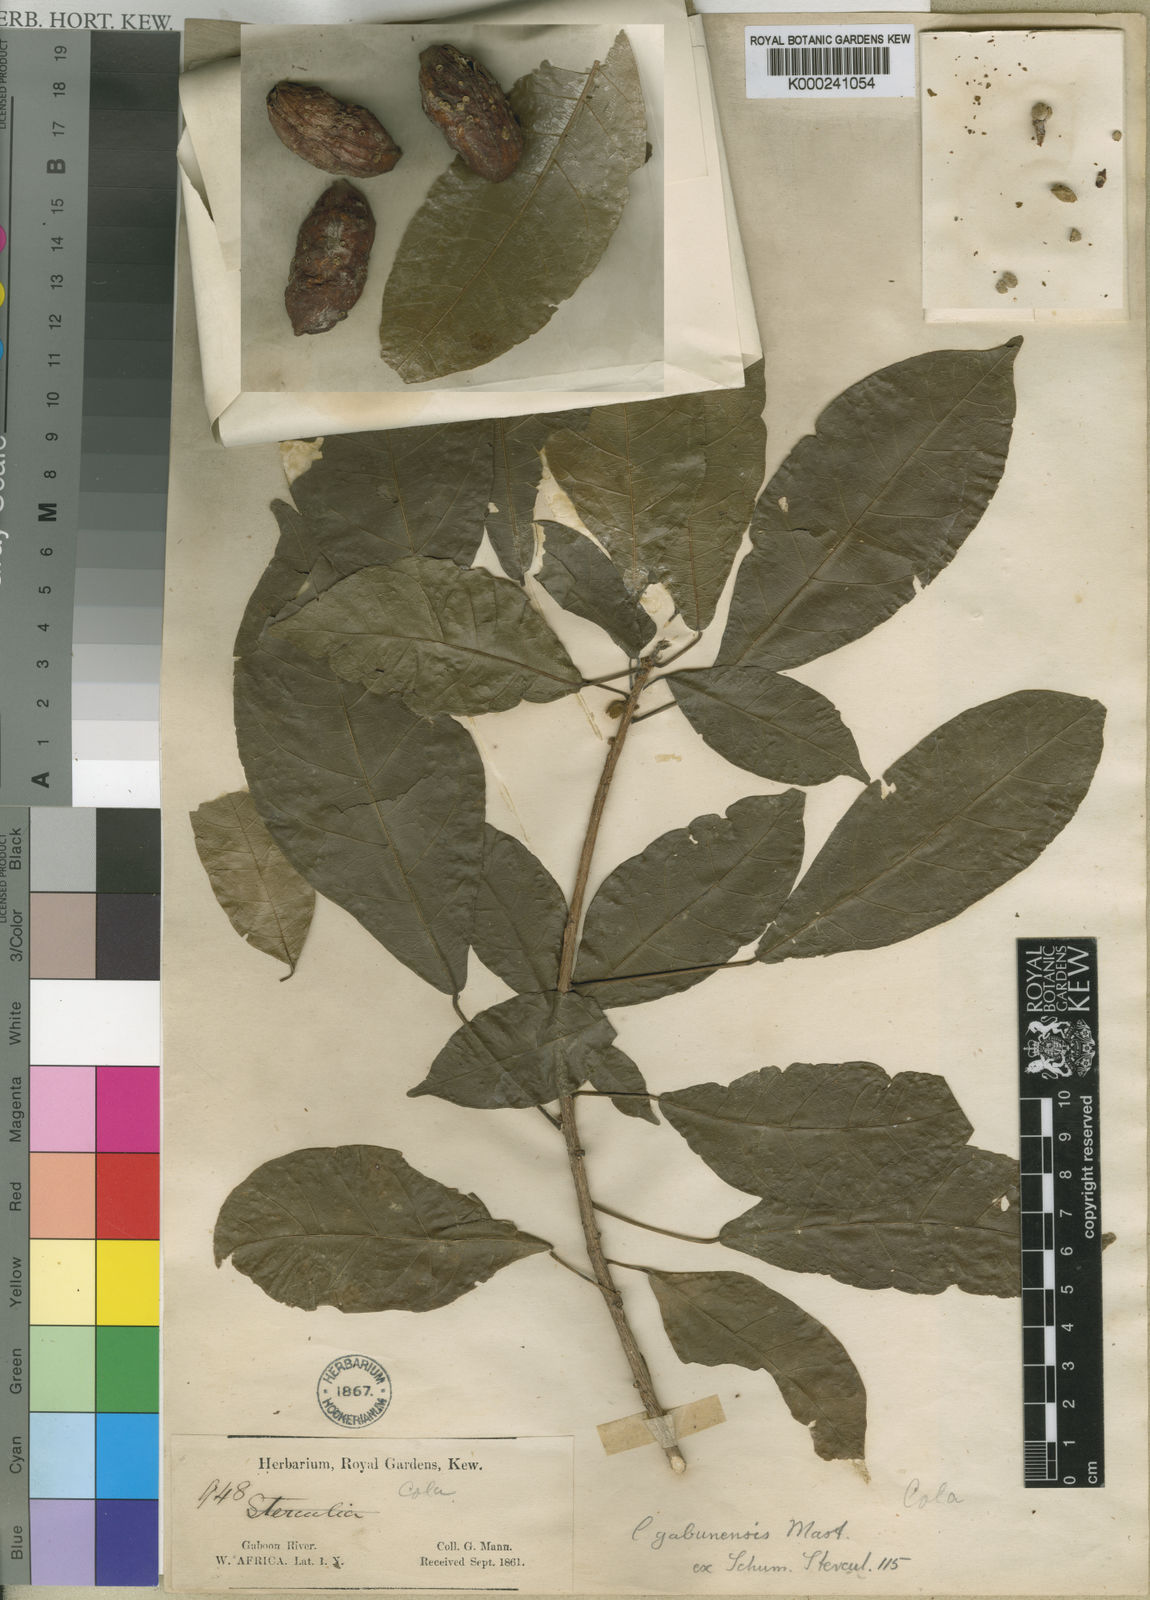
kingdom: Plantae
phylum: Tracheophyta
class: Magnoliopsida
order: Malvales
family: Malvaceae
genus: Cola
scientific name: Cola gabonensis
